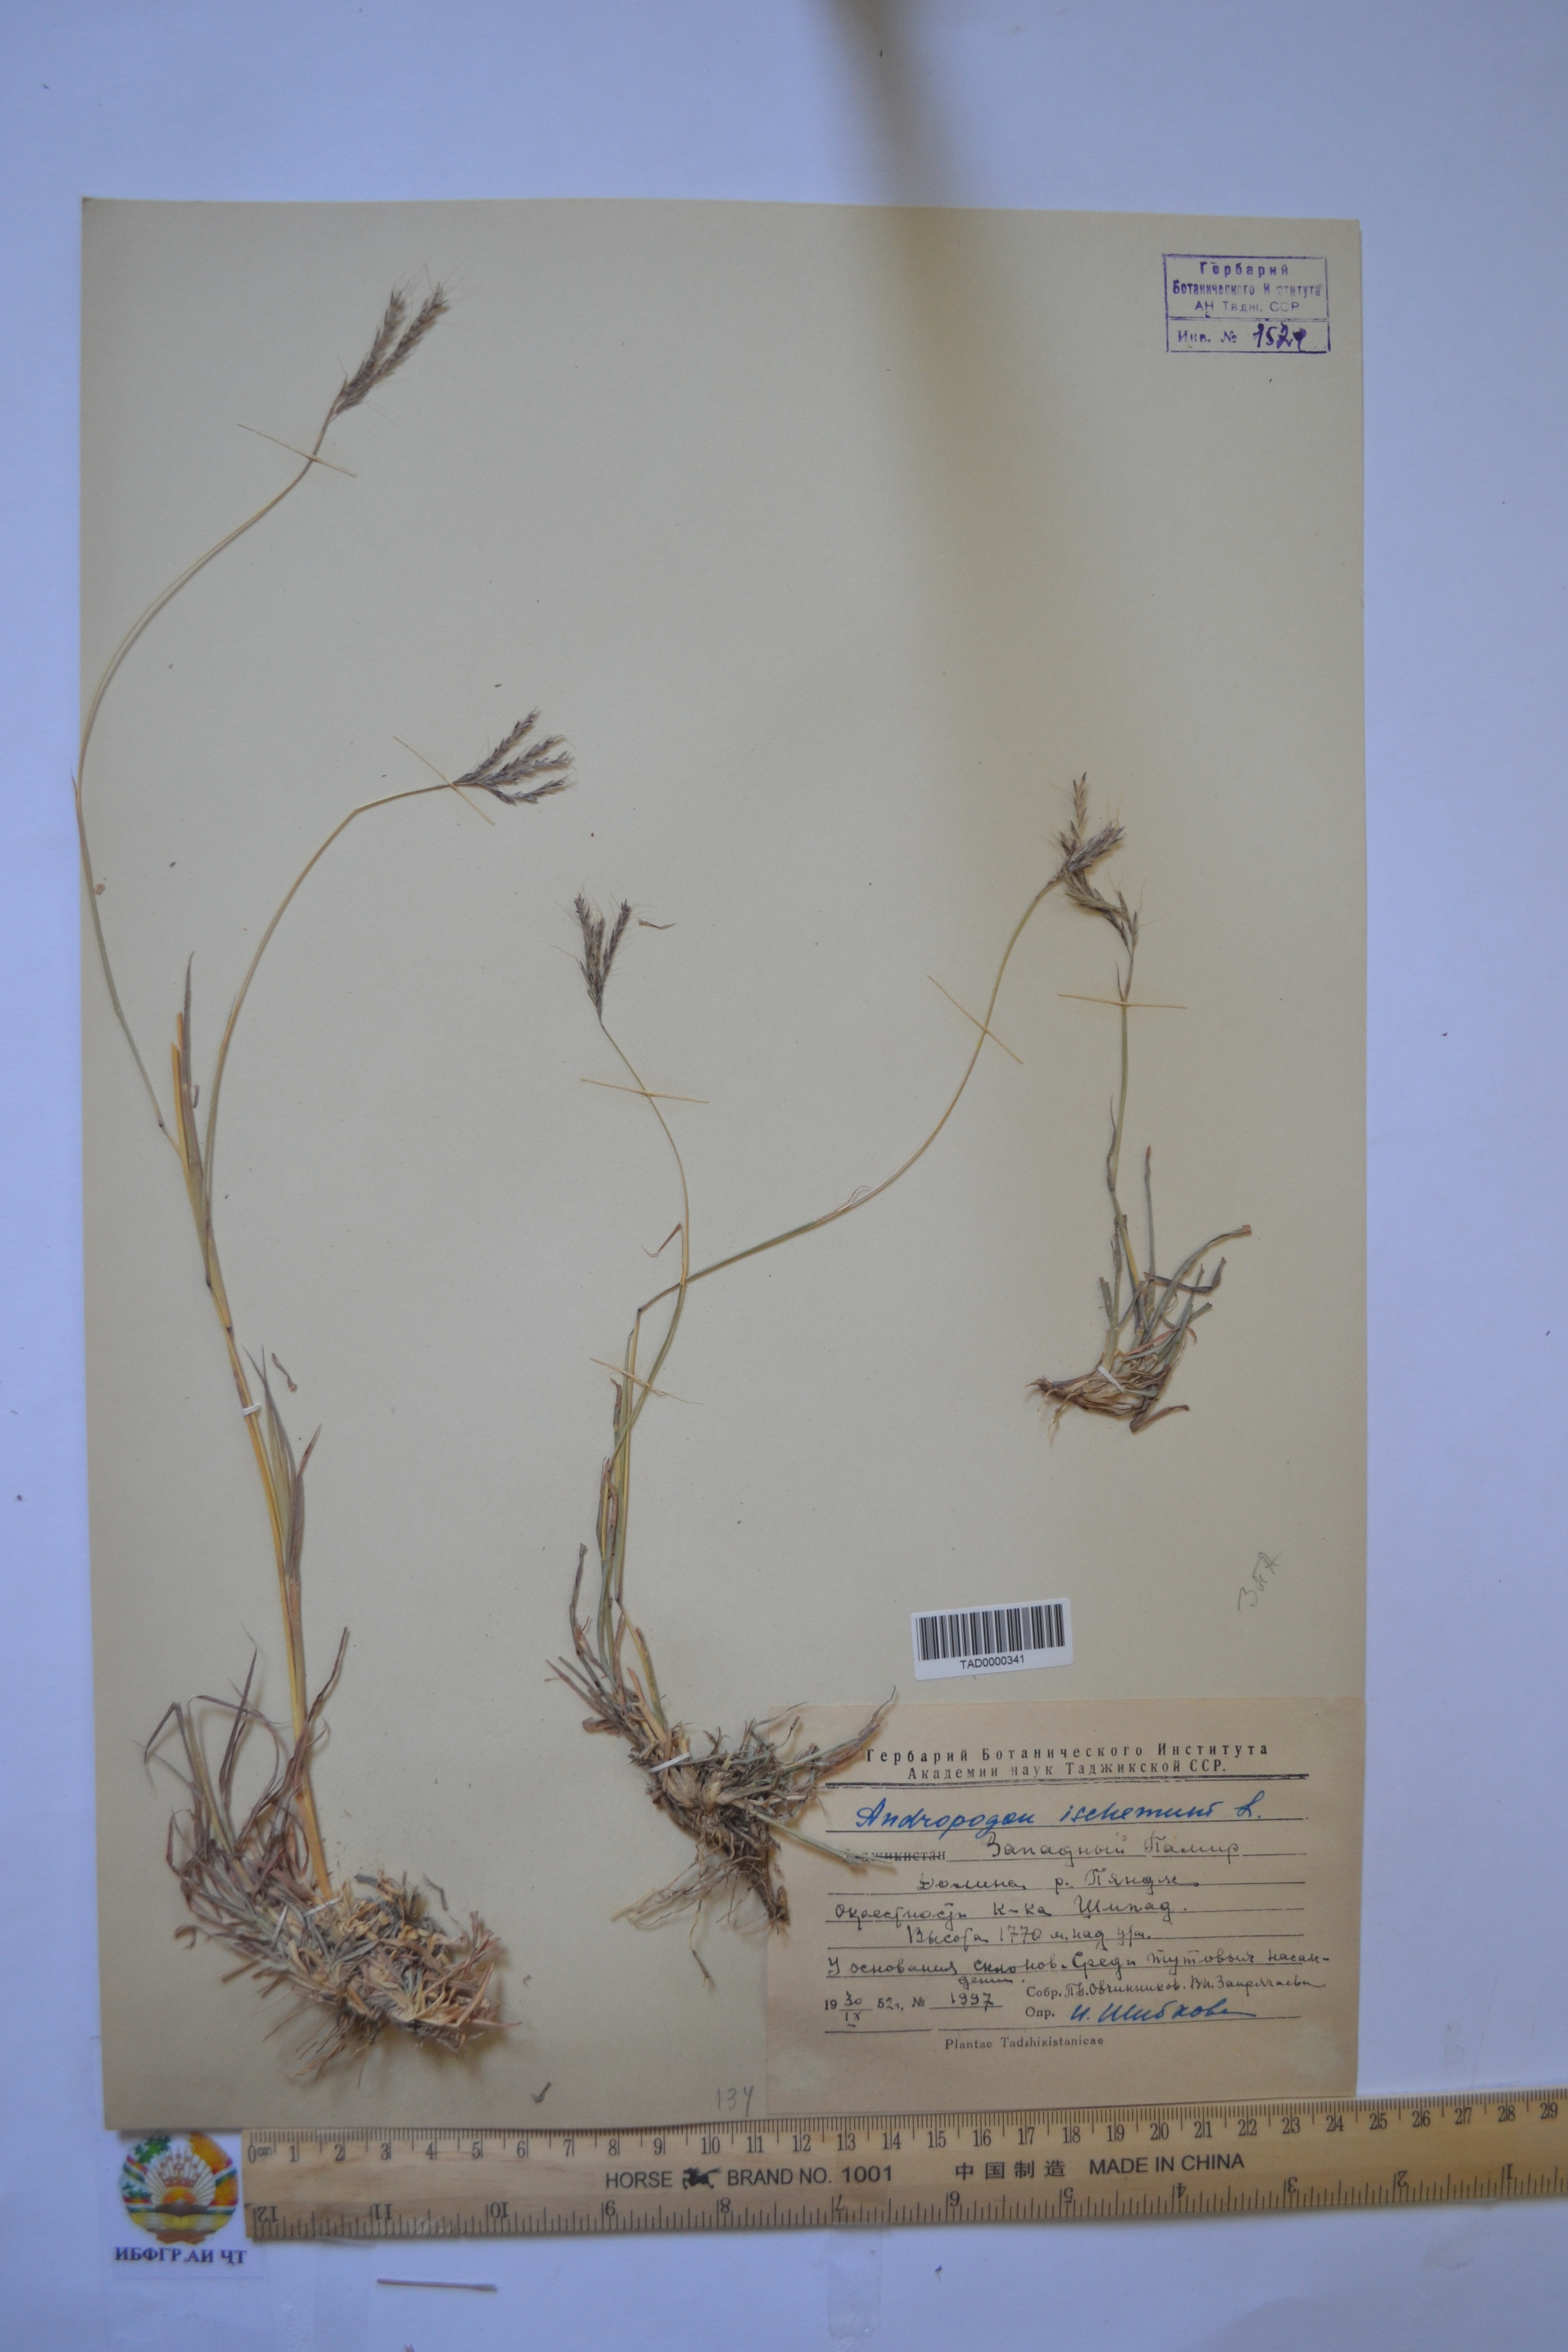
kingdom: Plantae
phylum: Tracheophyta
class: Liliopsida
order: Poales
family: Poaceae
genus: Andropogon
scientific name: Andropogon ischaemum
